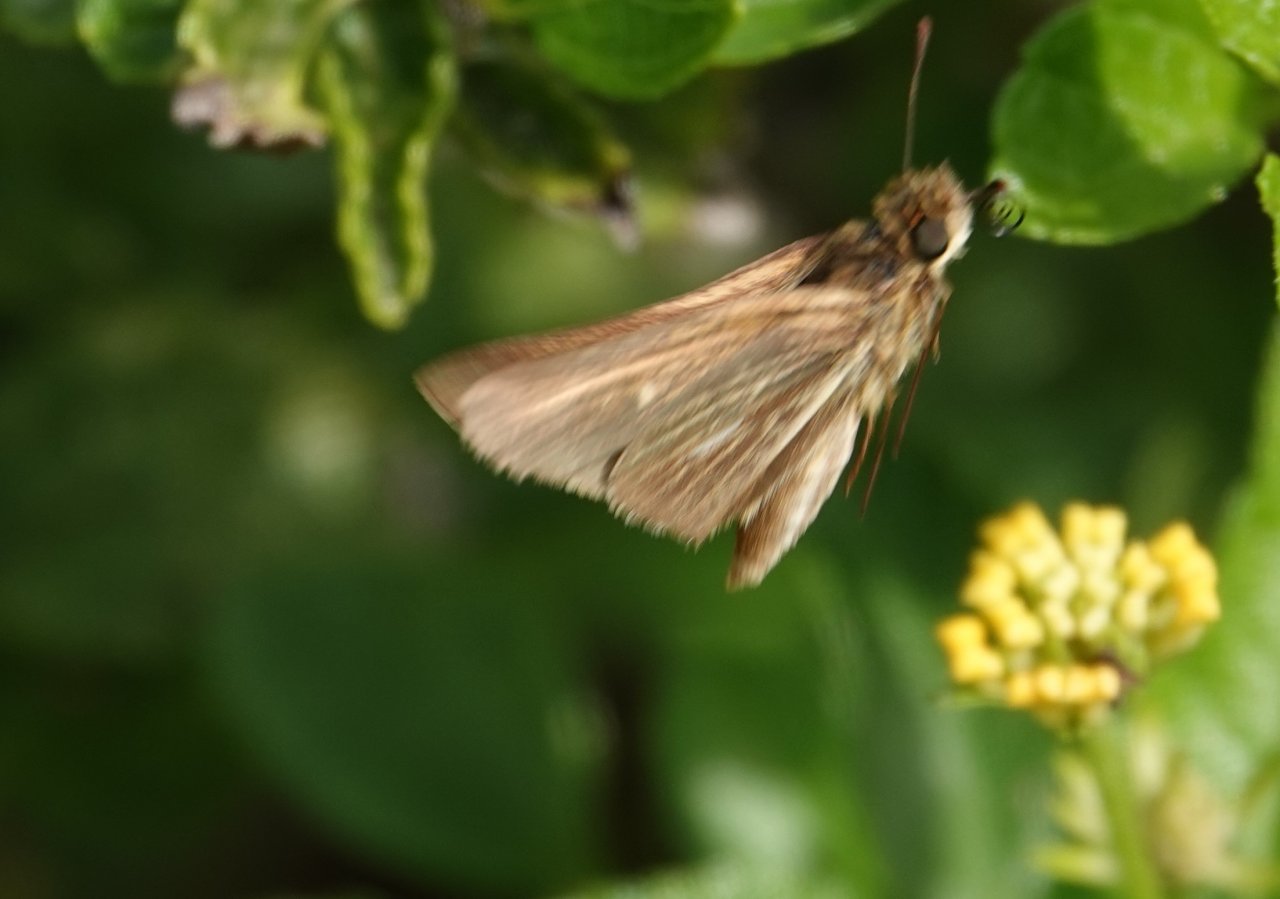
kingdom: Animalia
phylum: Arthropoda
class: Insecta
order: Lepidoptera
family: Hesperiidae
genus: Panoquina
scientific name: Panoquina panoquin
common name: Salt Marsh Skipper
